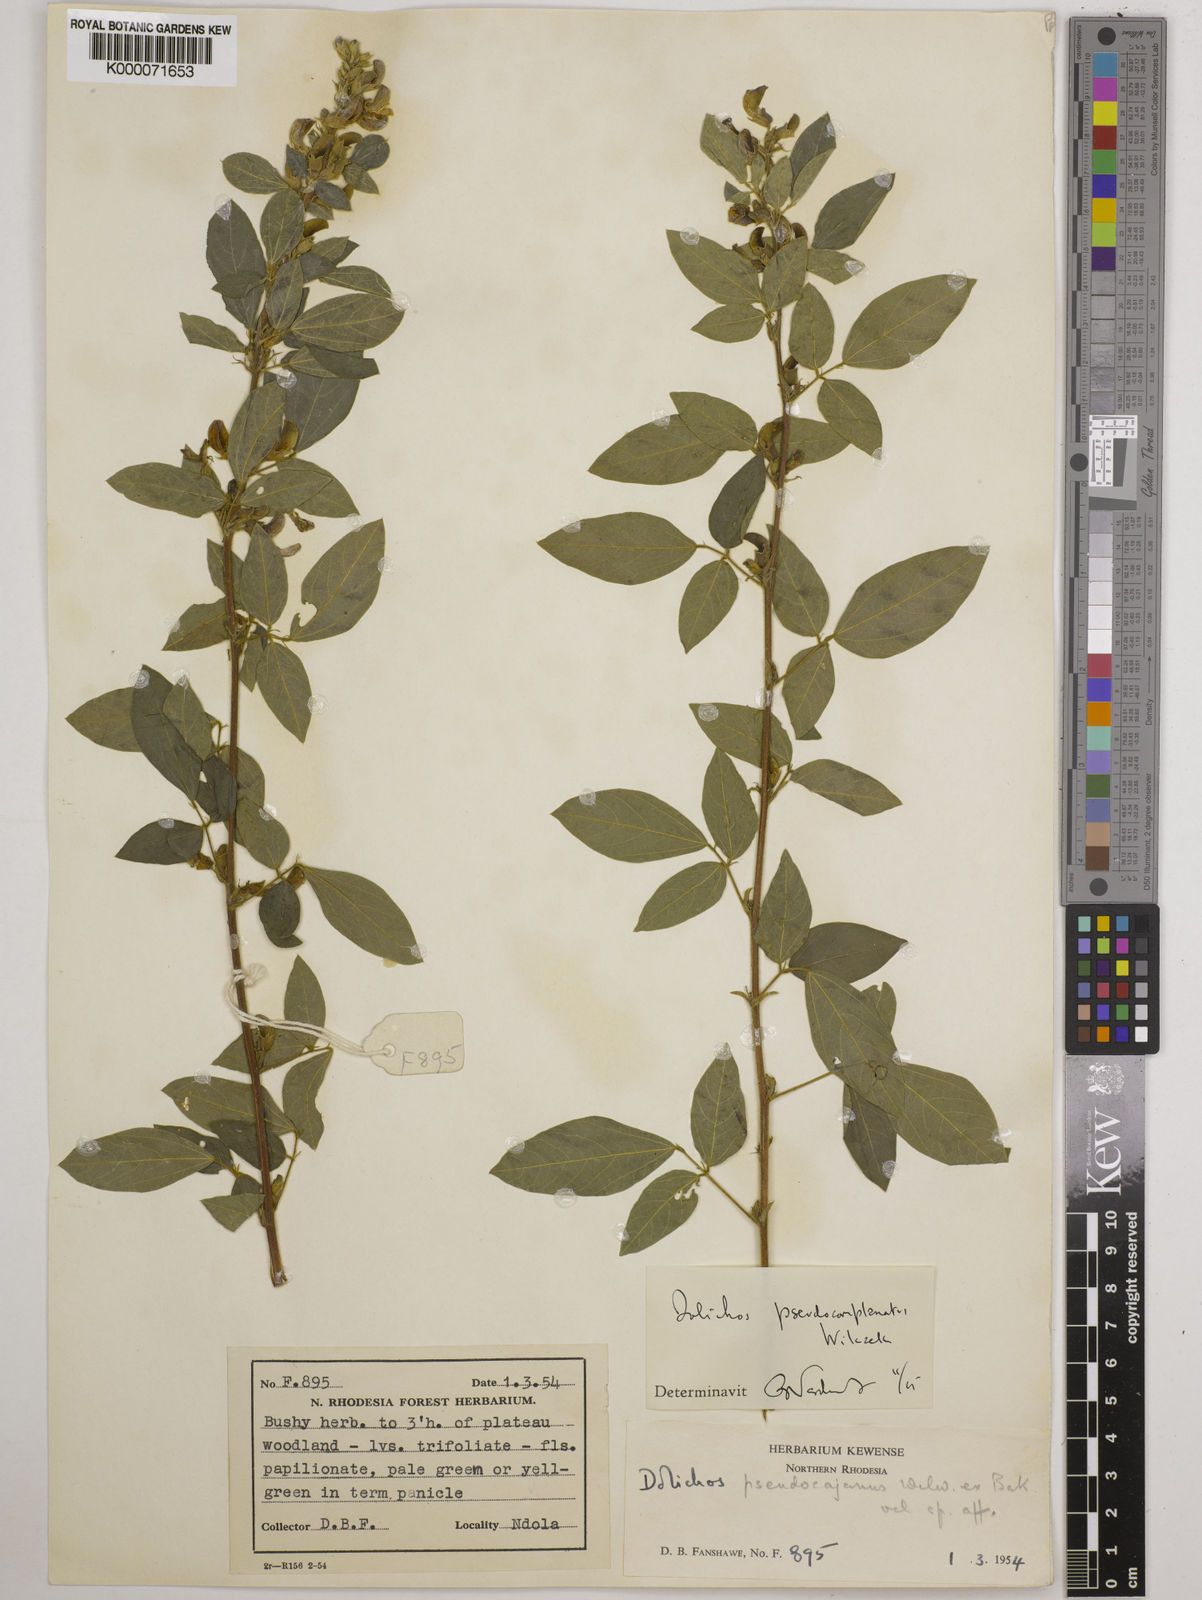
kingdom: Plantae
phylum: Tracheophyta
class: Magnoliopsida
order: Fabales
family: Fabaceae
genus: Dolichos
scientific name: Dolichos
